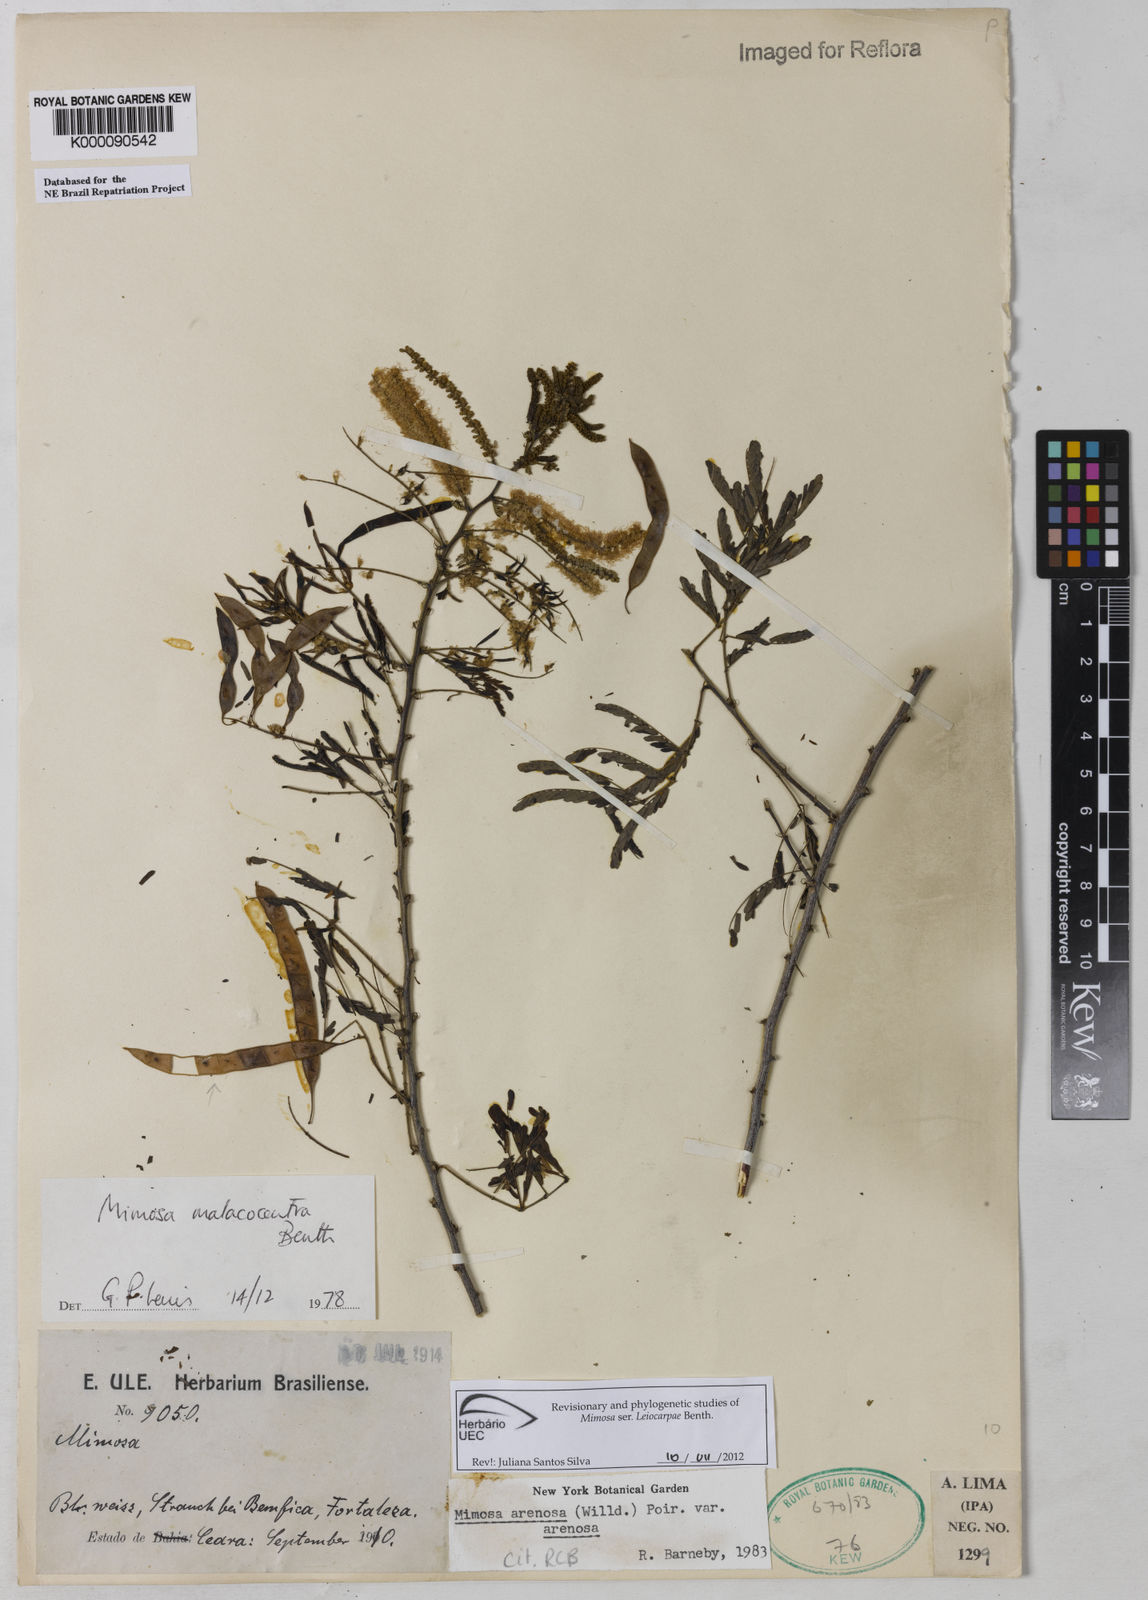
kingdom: Plantae
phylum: Tracheophyta
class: Magnoliopsida
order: Fabales
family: Fabaceae
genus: Mimosa
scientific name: Mimosa arenosa
